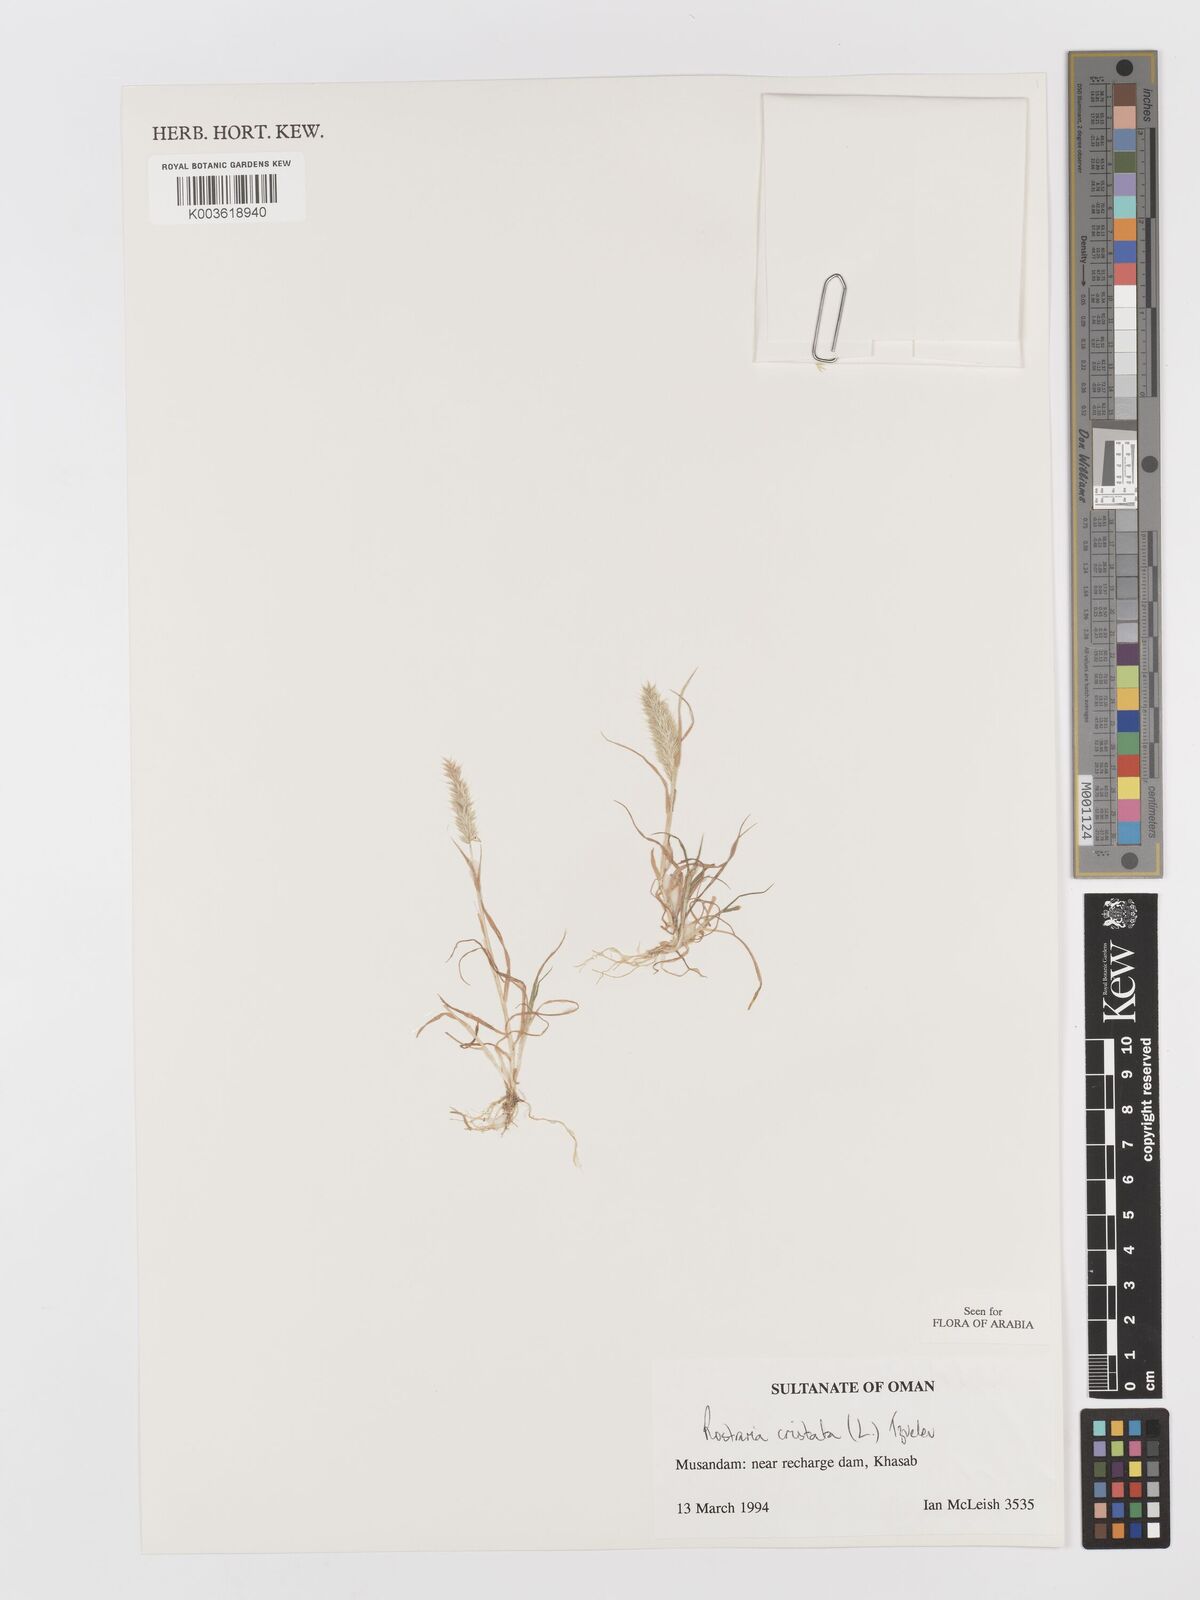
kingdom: Plantae
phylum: Tracheophyta
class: Liliopsida
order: Poales
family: Poaceae
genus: Rostraria
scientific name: Rostraria cristata
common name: Mediterranean hair-grass
